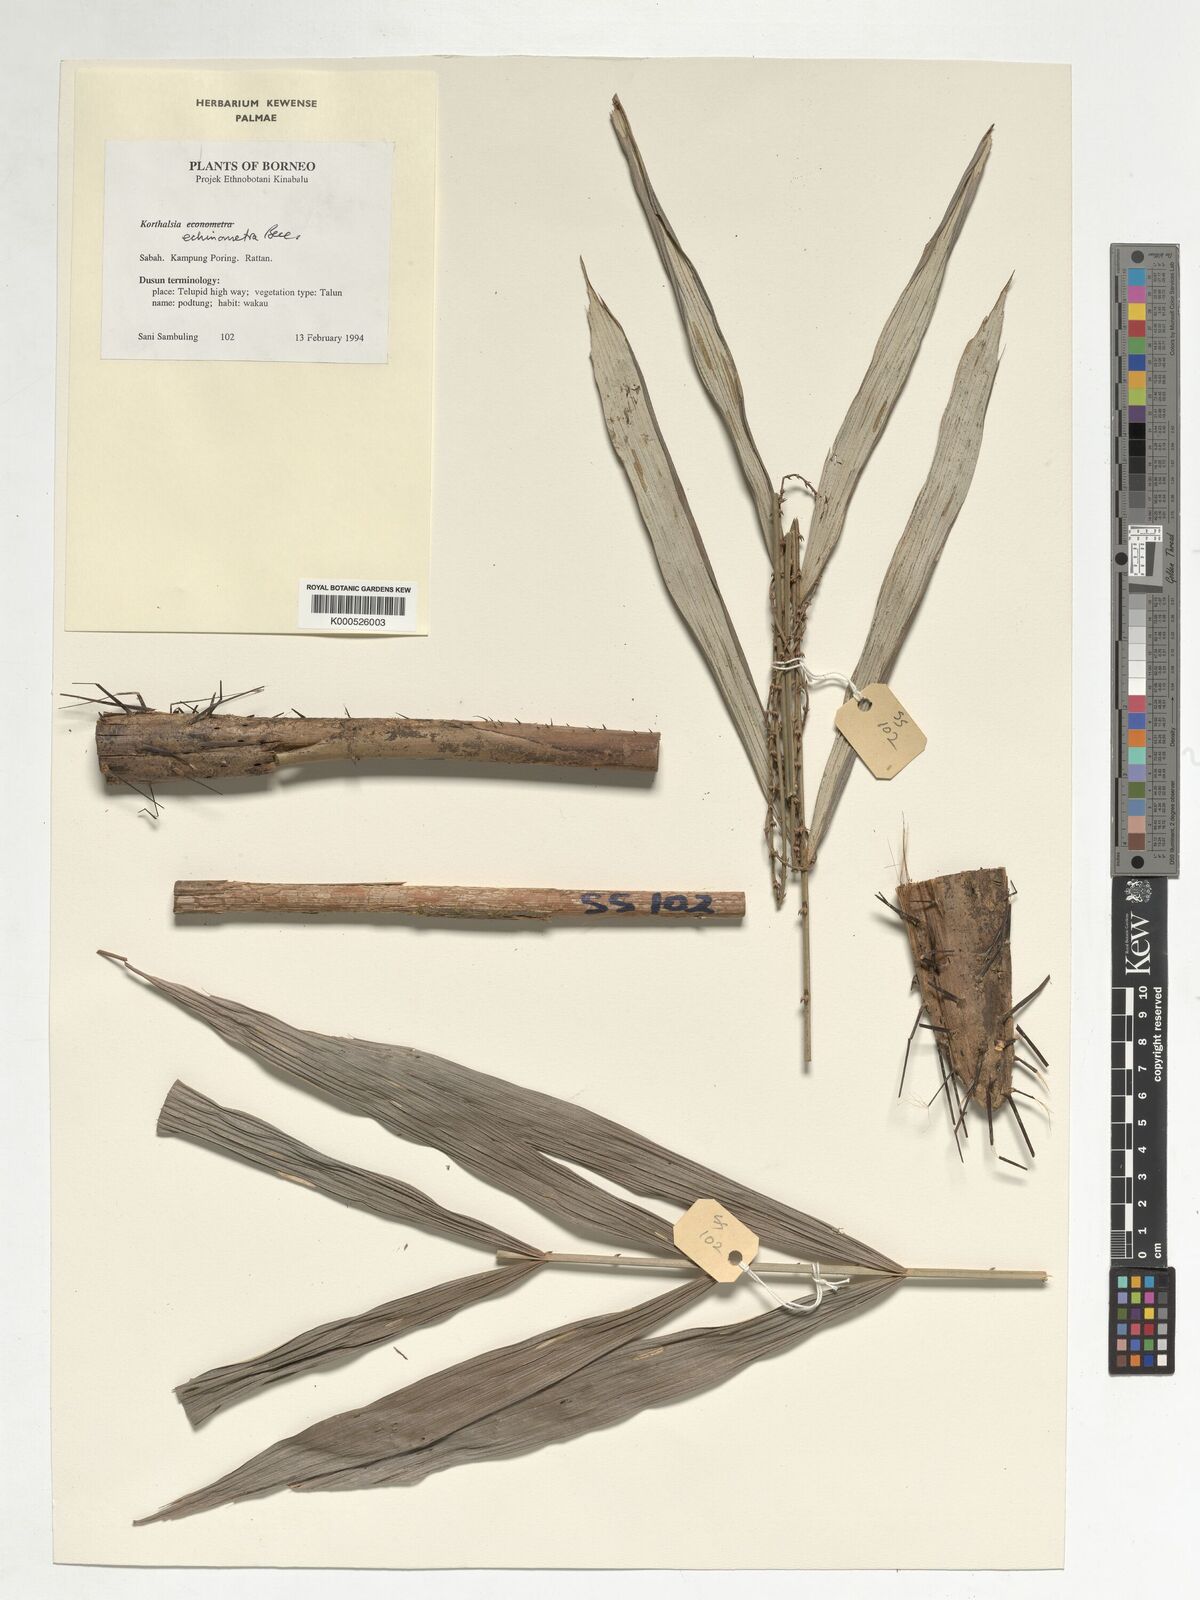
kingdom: Plantae
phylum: Tracheophyta
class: Liliopsida
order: Arecales
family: Arecaceae
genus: Korthalsia
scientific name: Korthalsia echinometra
